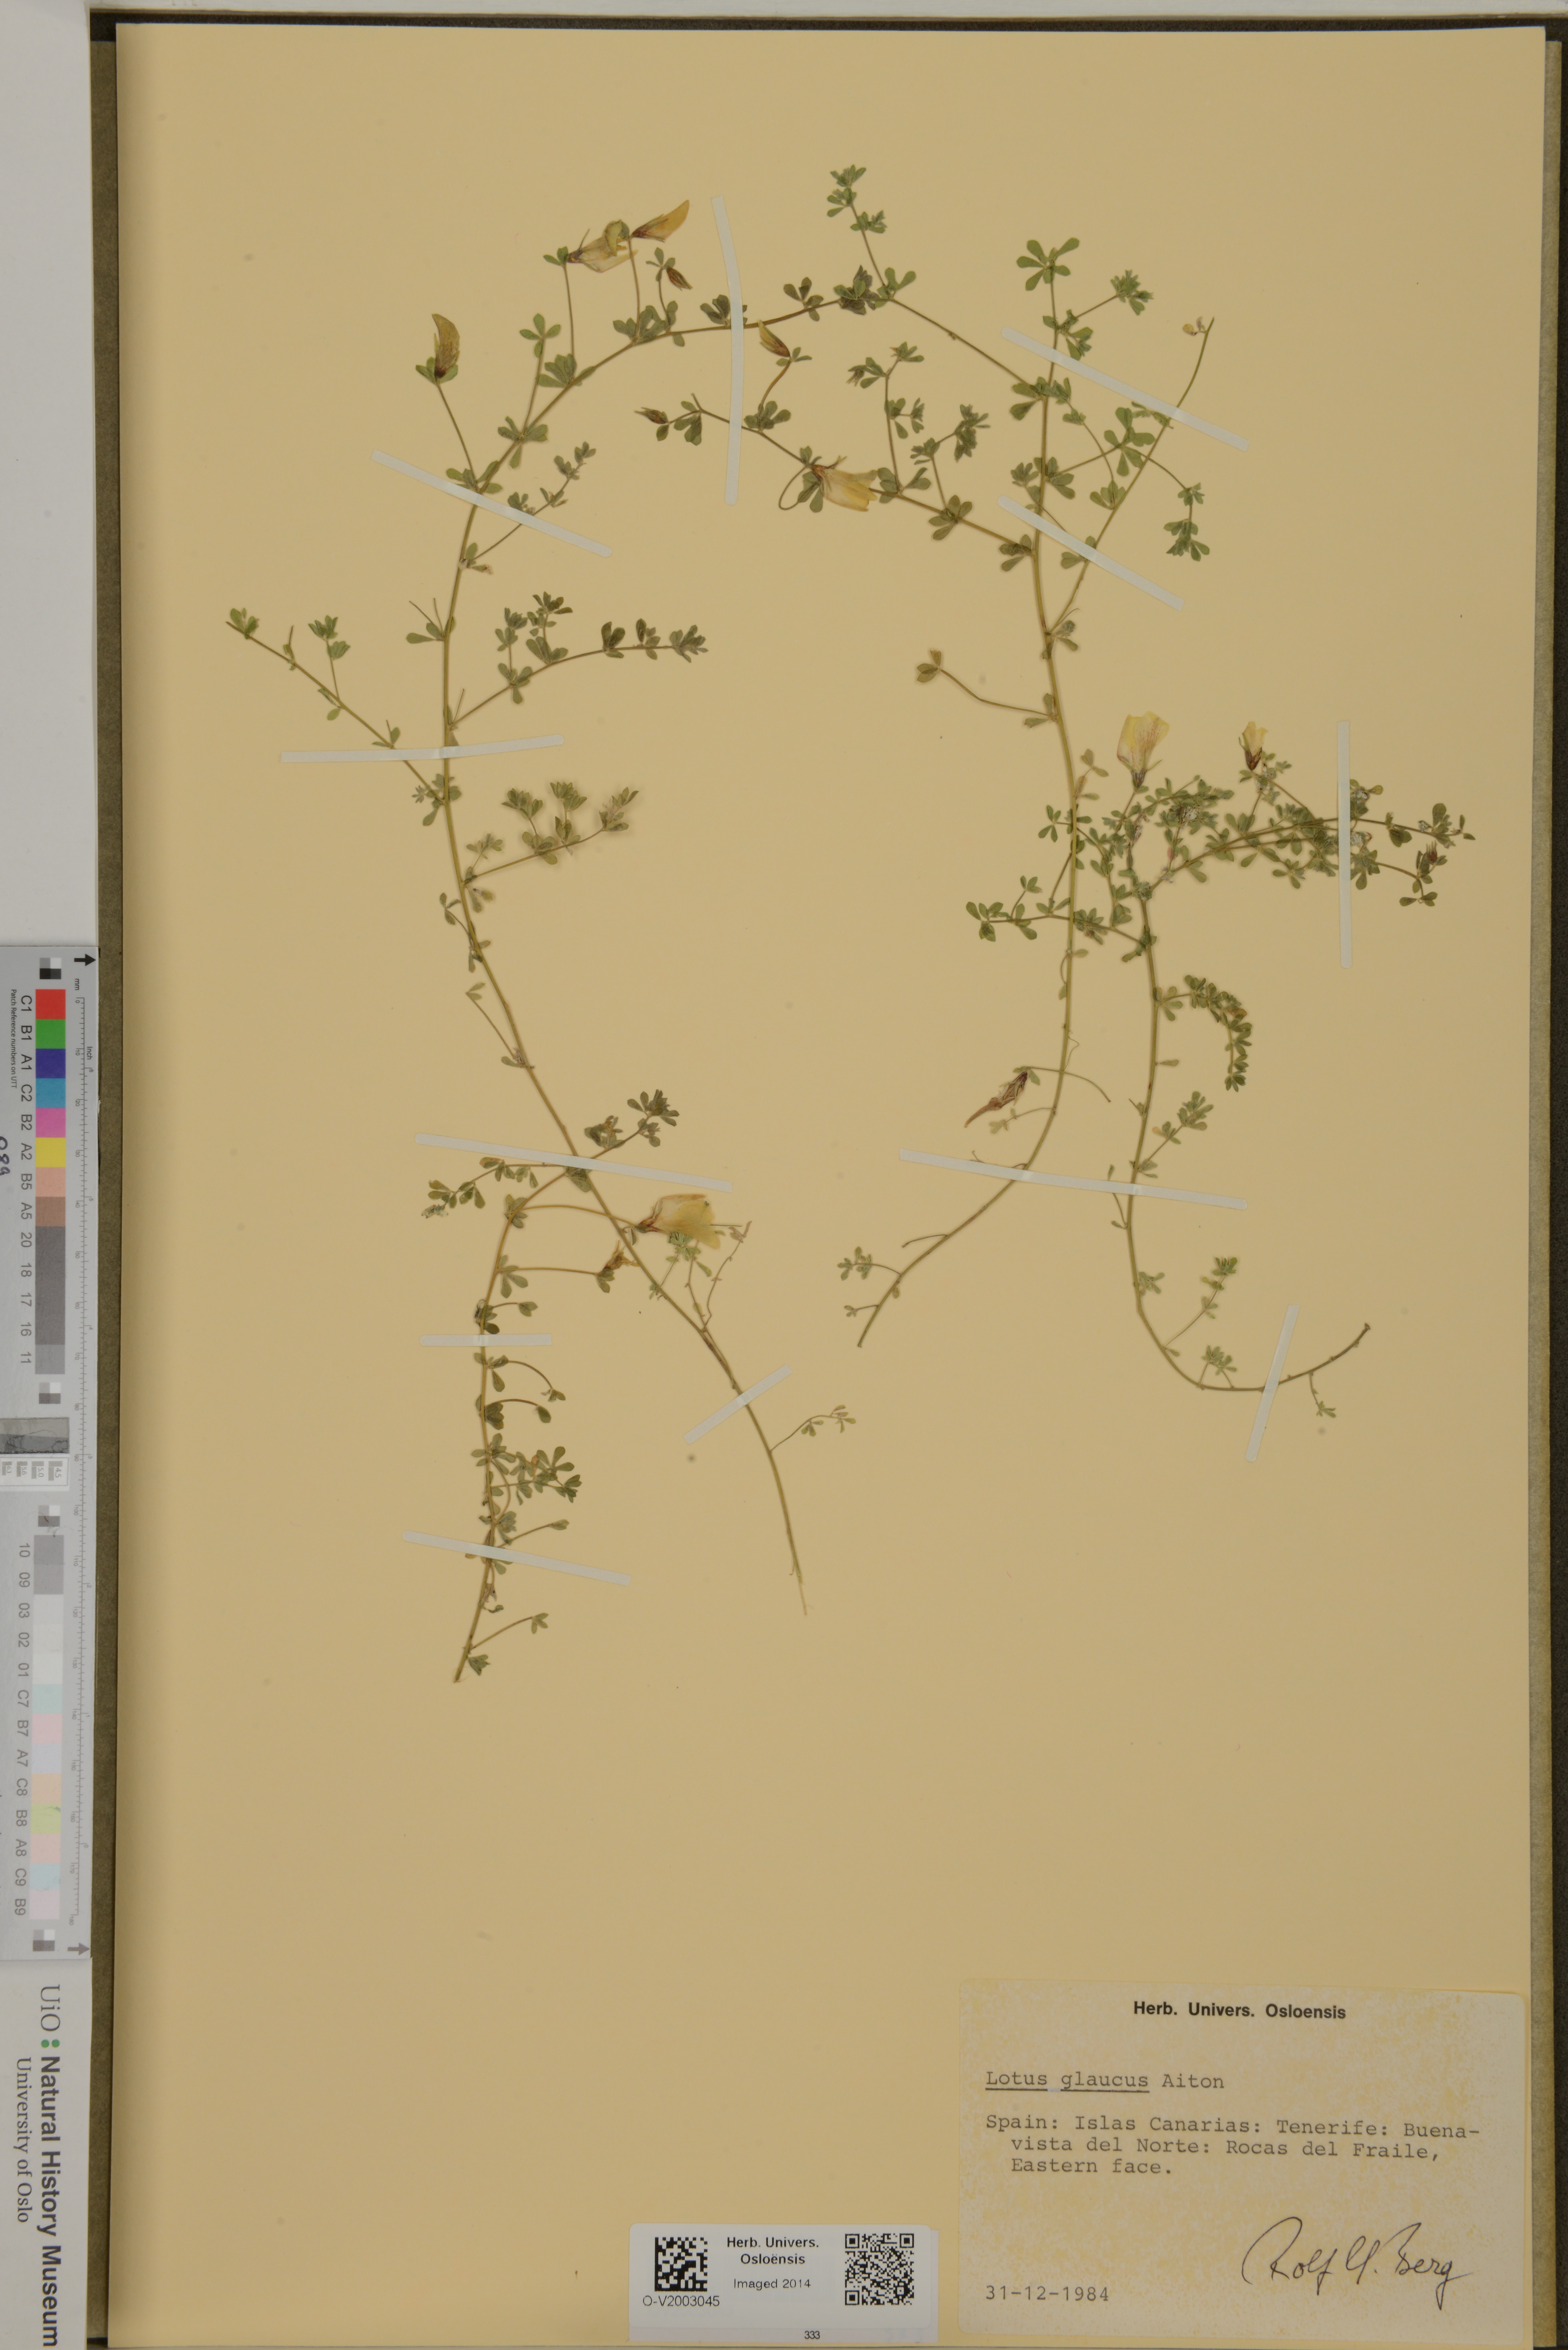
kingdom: Plantae
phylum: Tracheophyta
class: Magnoliopsida
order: Fabales
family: Fabaceae
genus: Lotus
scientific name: Lotus glaucus
